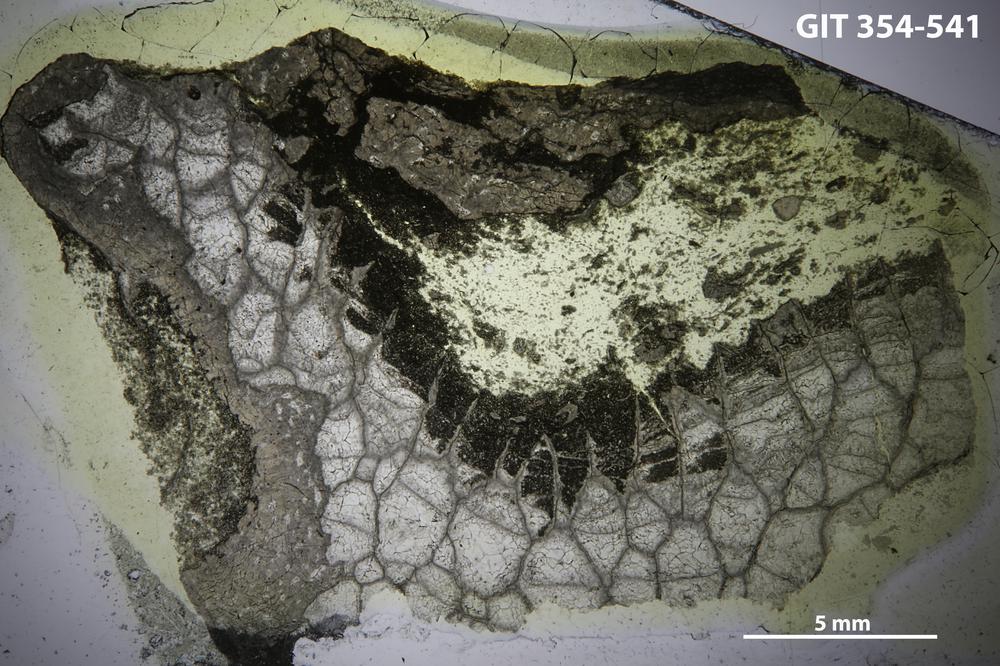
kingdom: Animalia
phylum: Porifera
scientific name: Porifera
